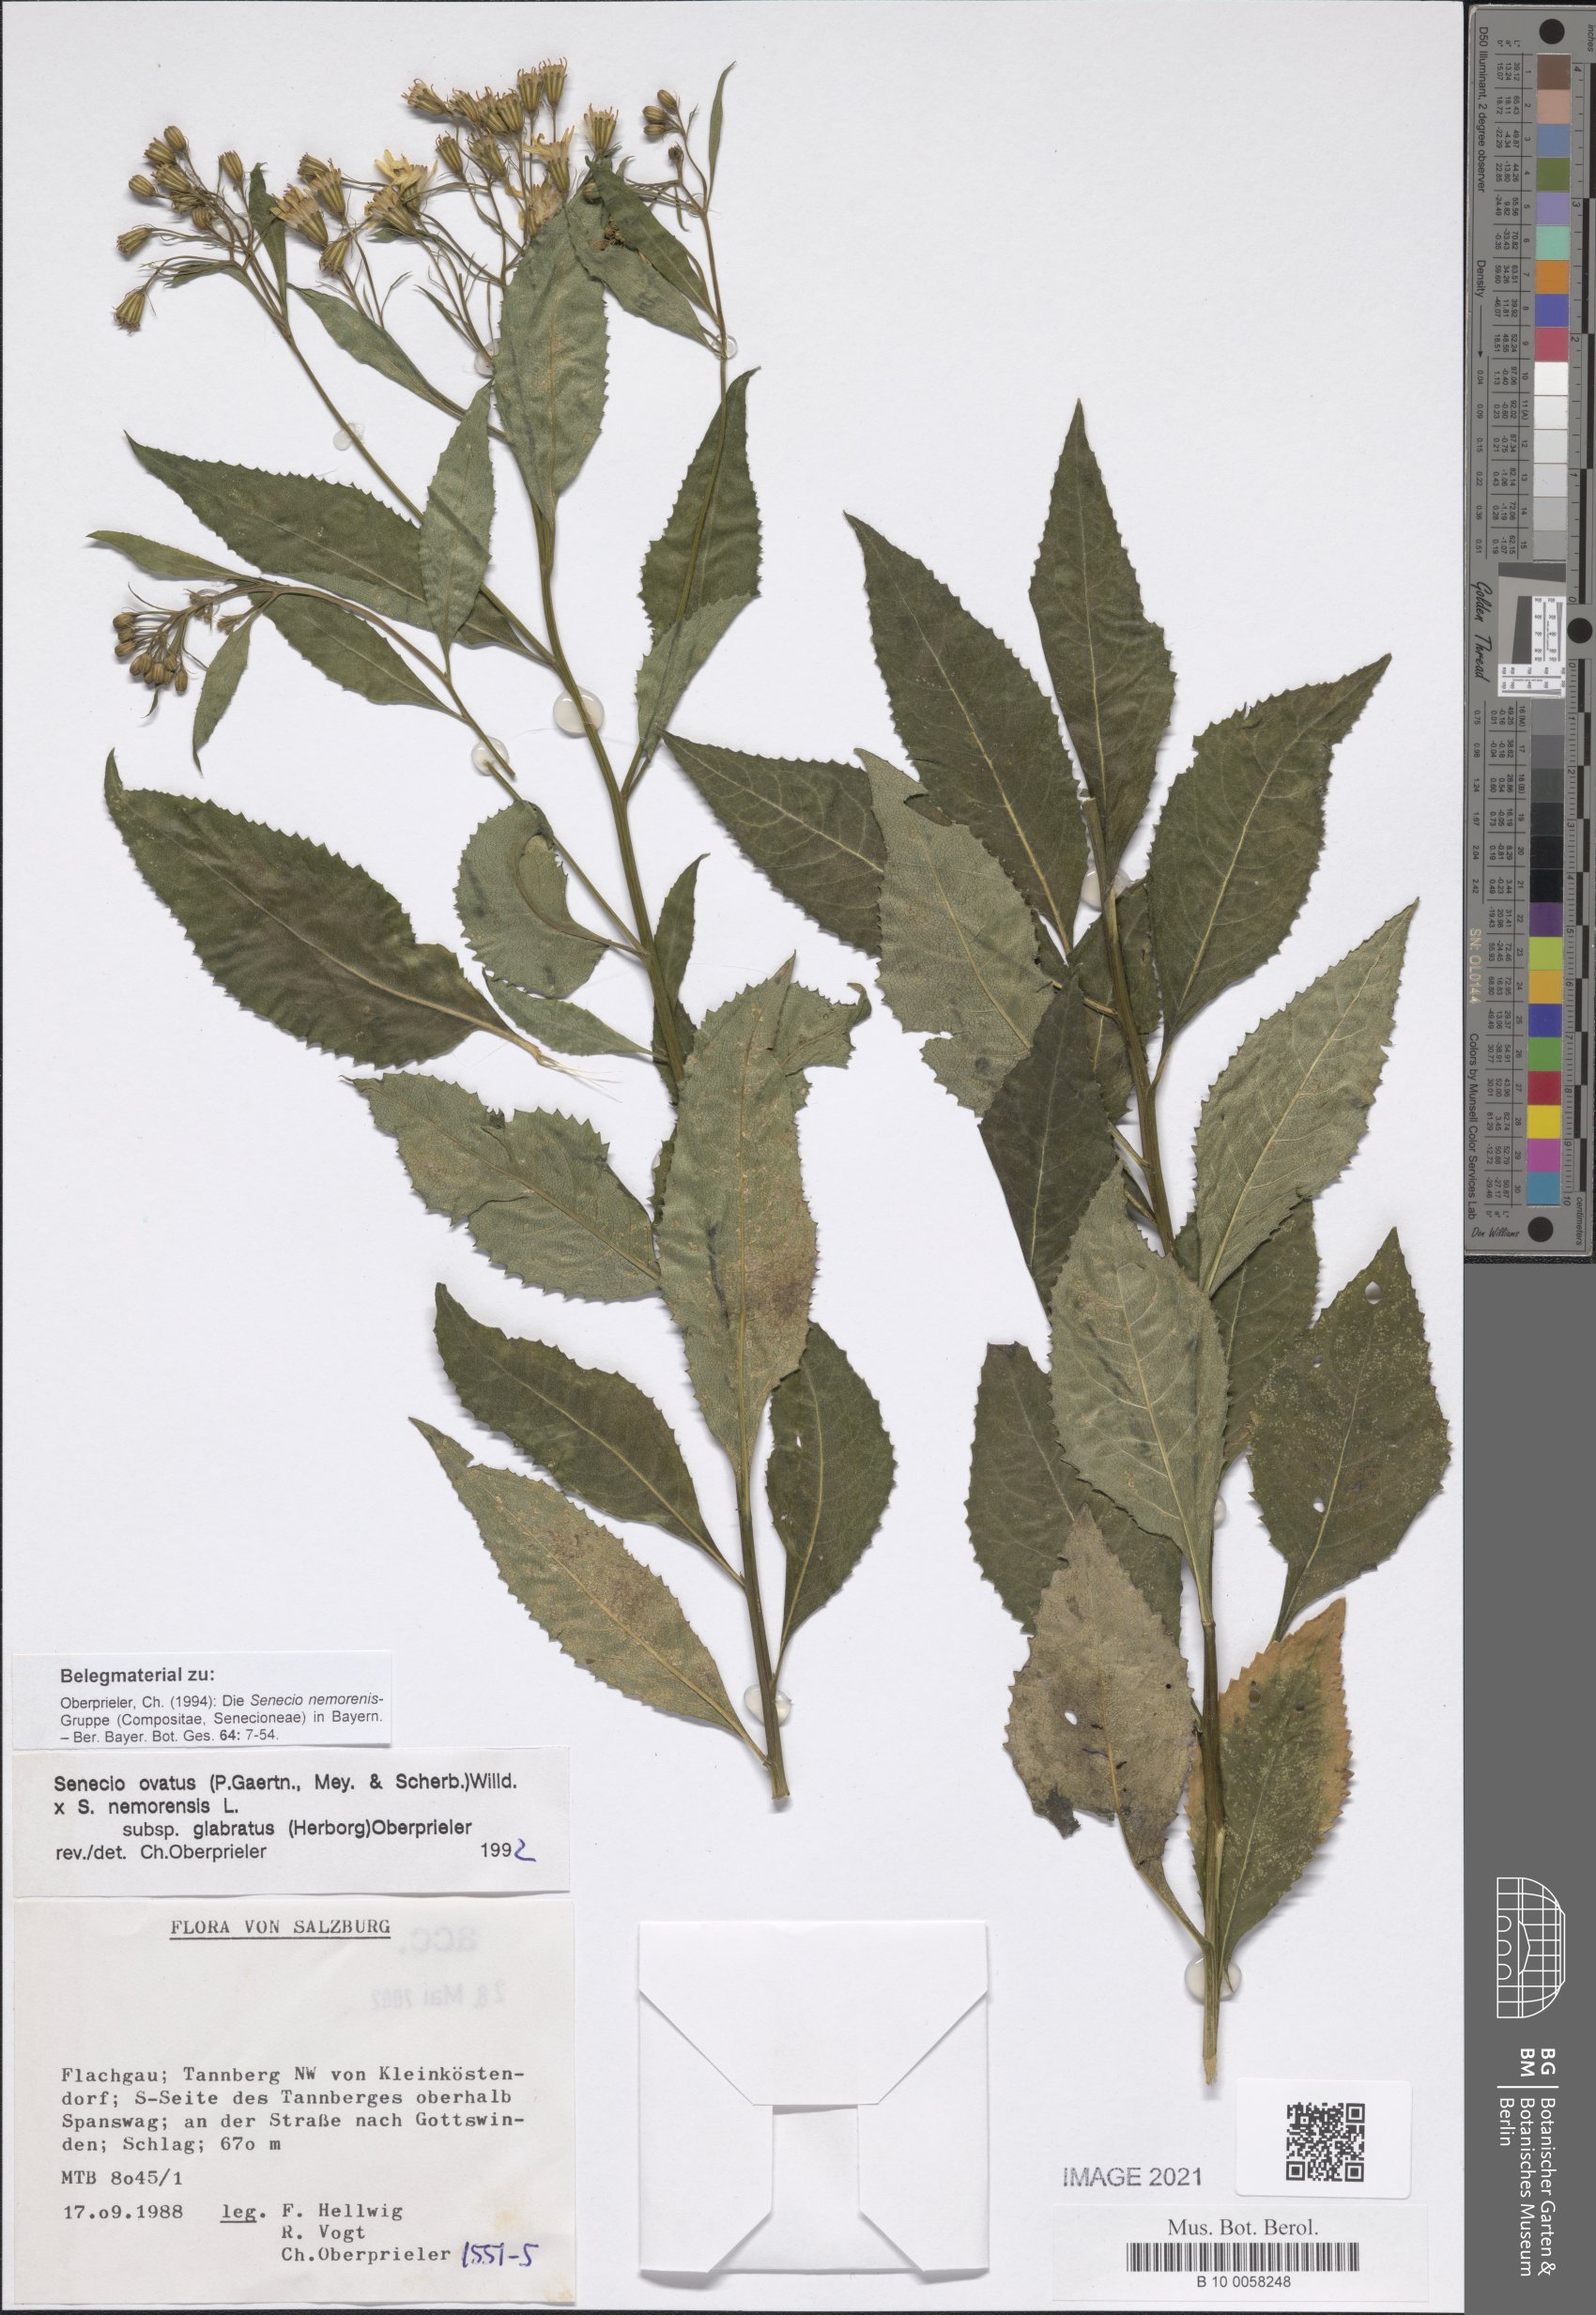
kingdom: Plantae
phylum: Tracheophyta
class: Magnoliopsida
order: Asterales
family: Asteraceae
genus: Senecio
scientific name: Senecio ovatus
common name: Wood ragwort
